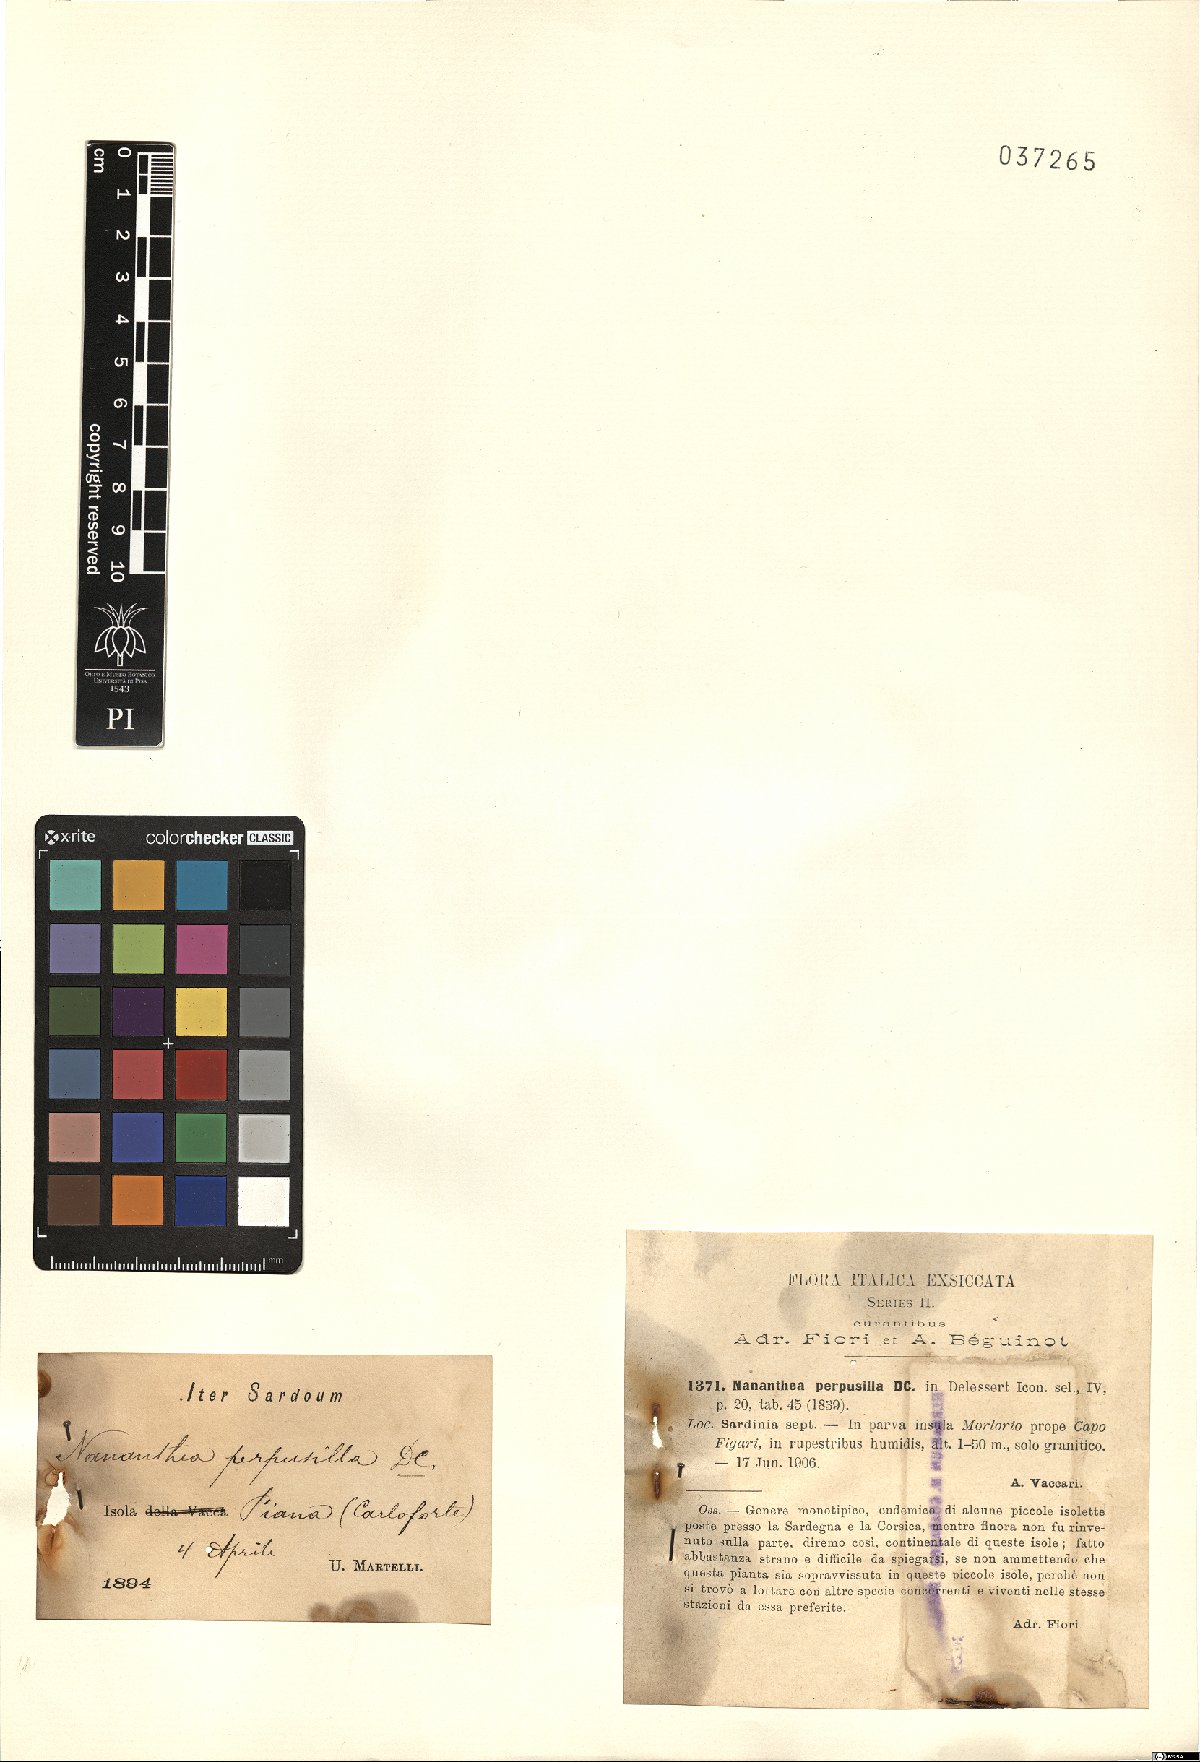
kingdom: Plantae
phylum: Tracheophyta
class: Magnoliopsida
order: Asterales
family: Asteraceae
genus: Nananthea
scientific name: Nananthea perpusilla
